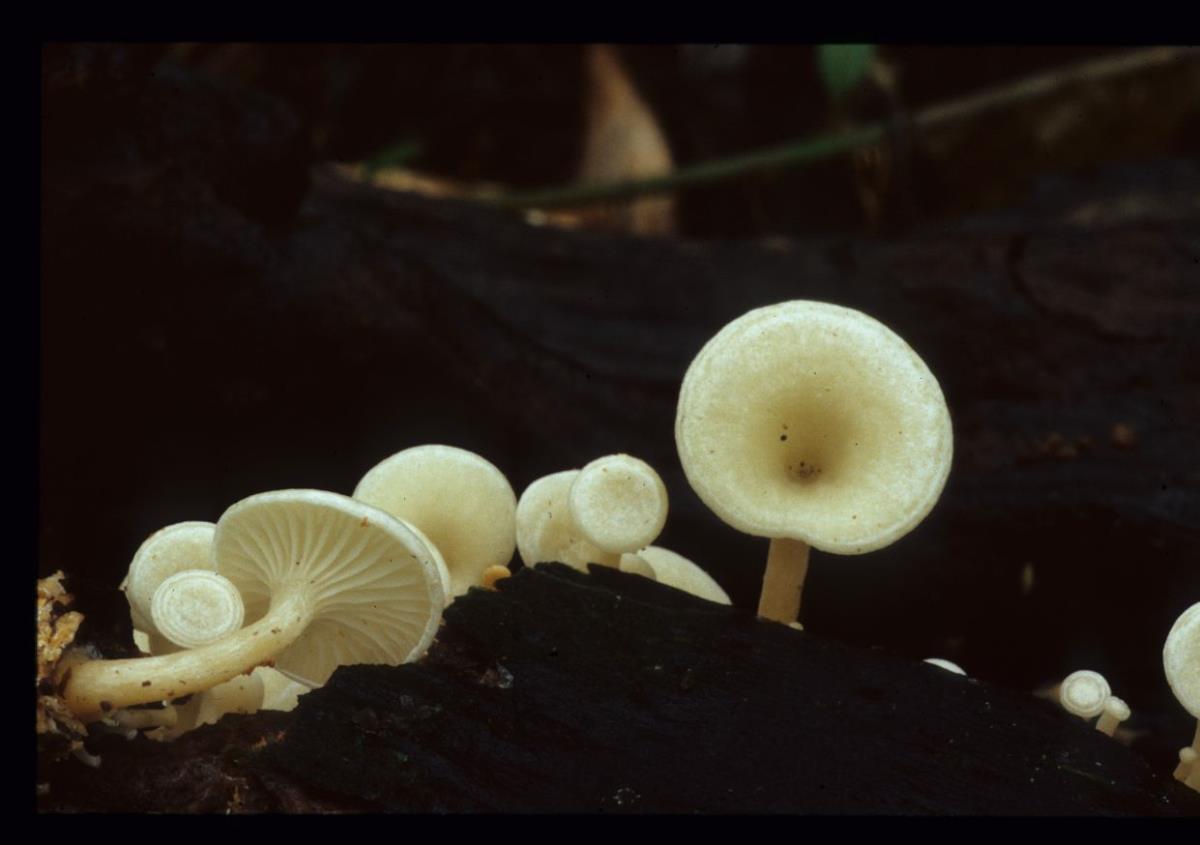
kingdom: Fungi
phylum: Basidiomycota
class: Agaricomycetes
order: Agaricales
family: Lyophyllaceae
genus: Ossicaulis
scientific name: Ossicaulis
